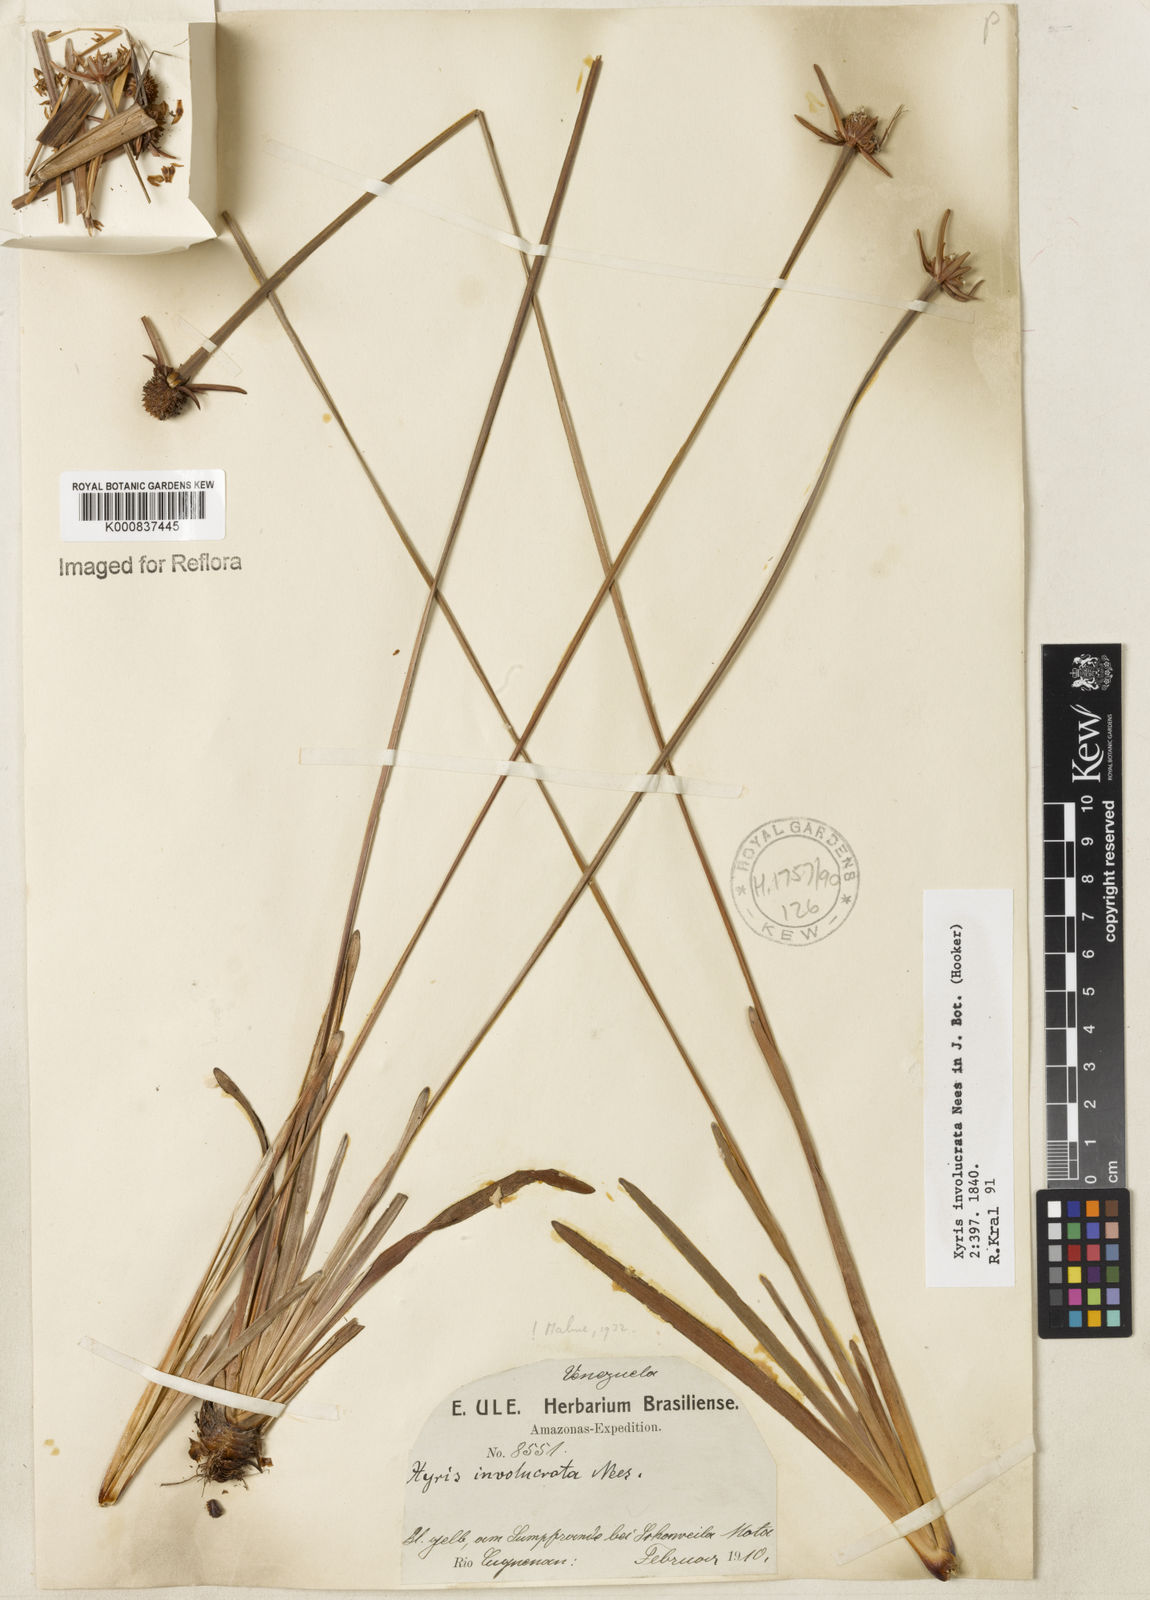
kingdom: Plantae
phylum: Tracheophyta
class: Liliopsida
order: Poales
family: Xyridaceae
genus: Xyris
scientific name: Xyris involucrata
